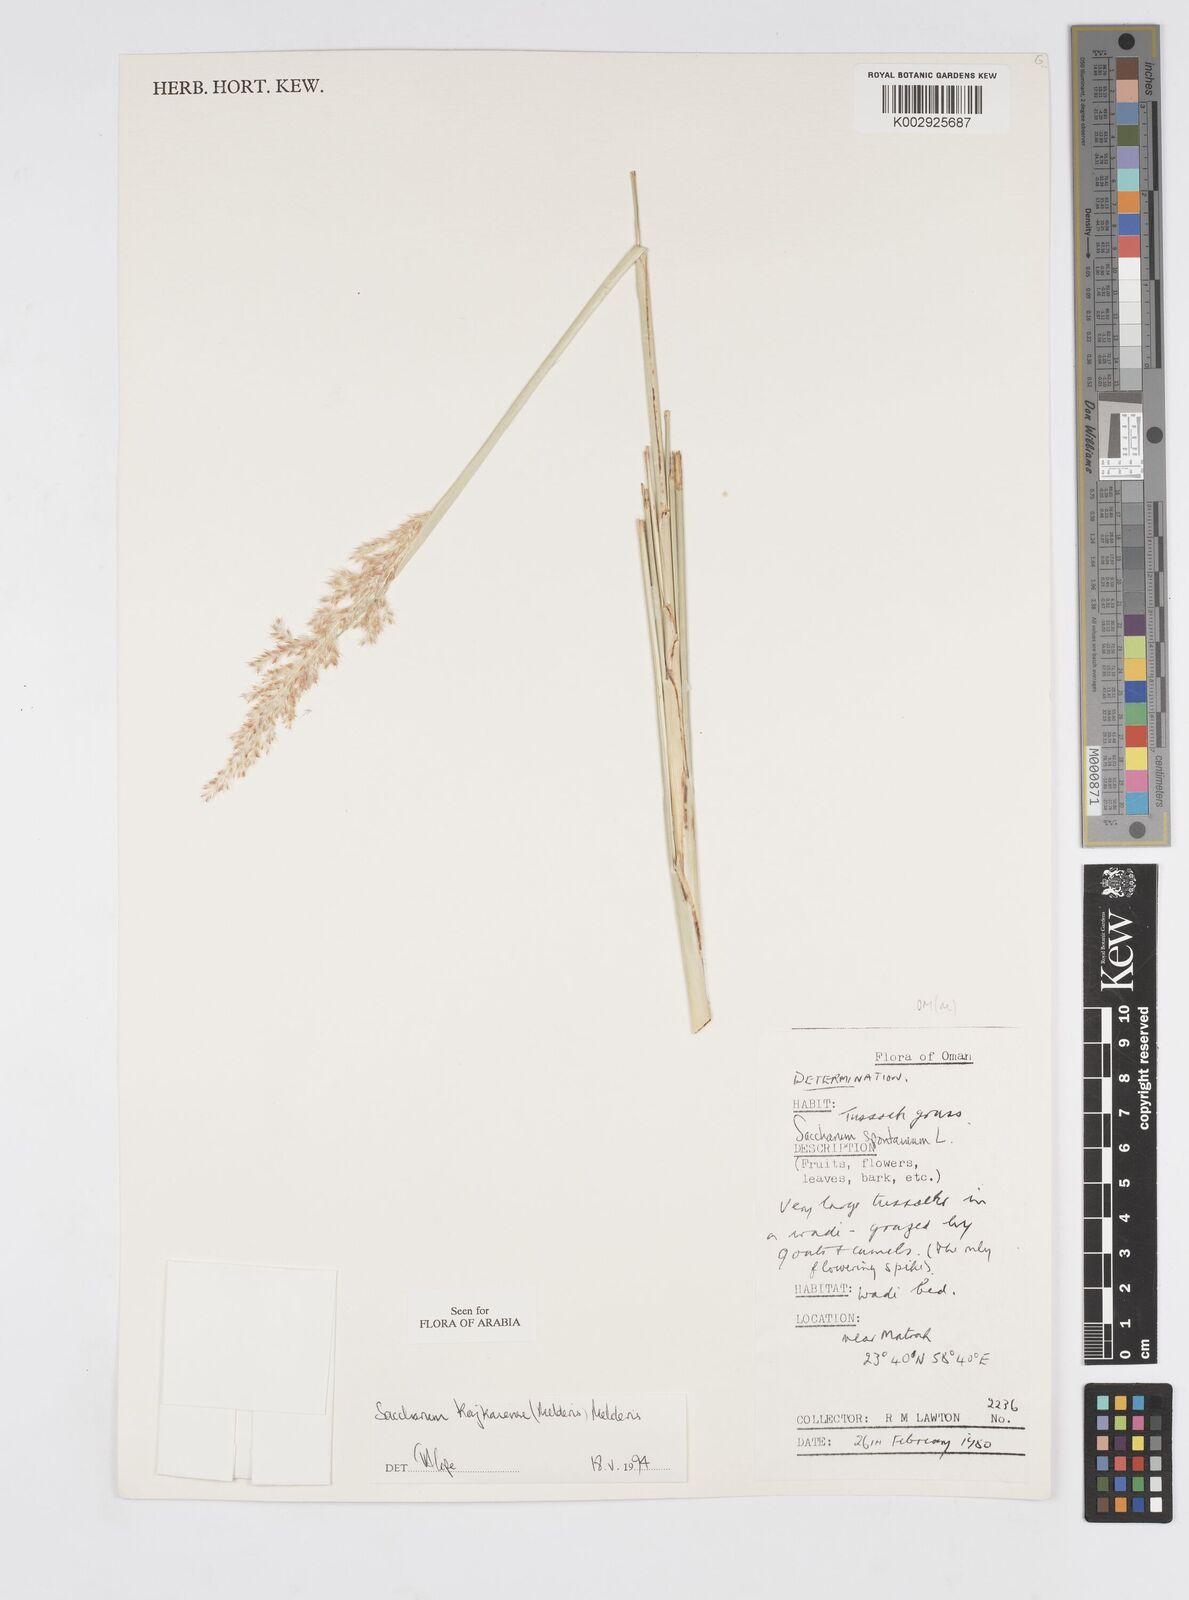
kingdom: Plantae
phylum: Tracheophyta
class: Liliopsida
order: Poales
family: Poaceae
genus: Saccharum
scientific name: Saccharum kajkaiense
